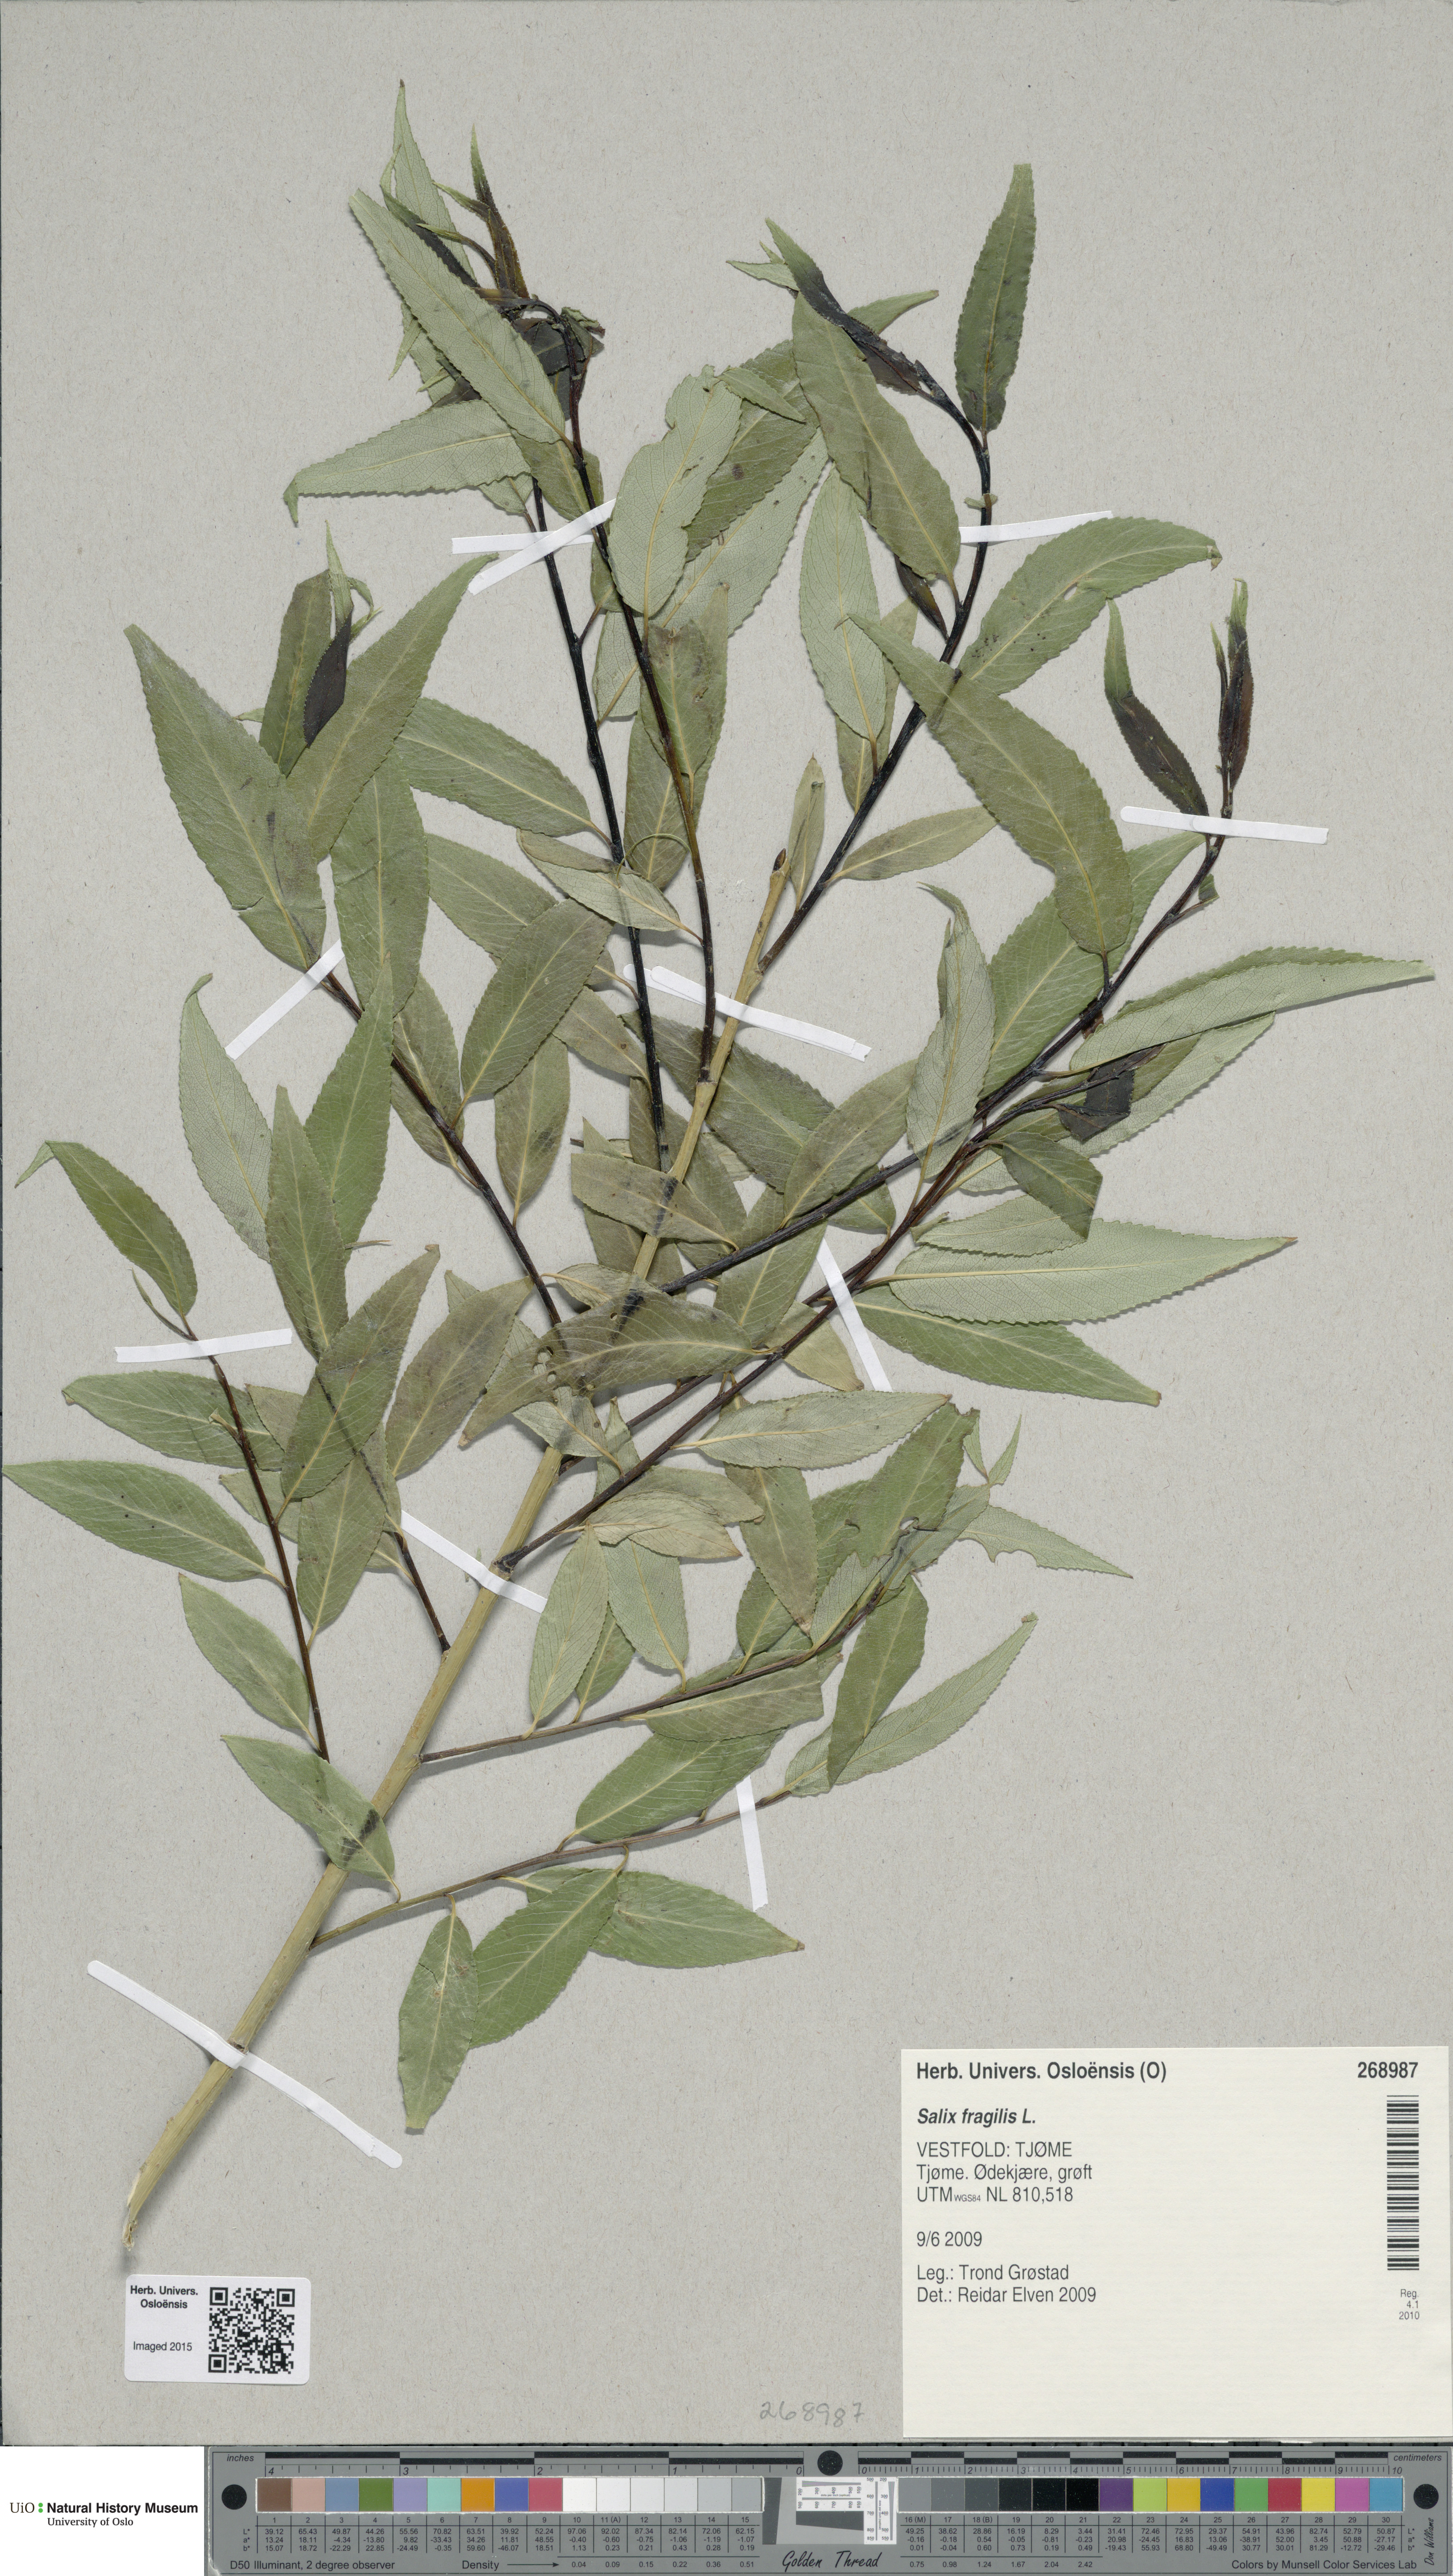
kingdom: Plantae
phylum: Tracheophyta
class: Magnoliopsida
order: Malpighiales
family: Salicaceae
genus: Salix
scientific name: Salix alba
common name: White willow
